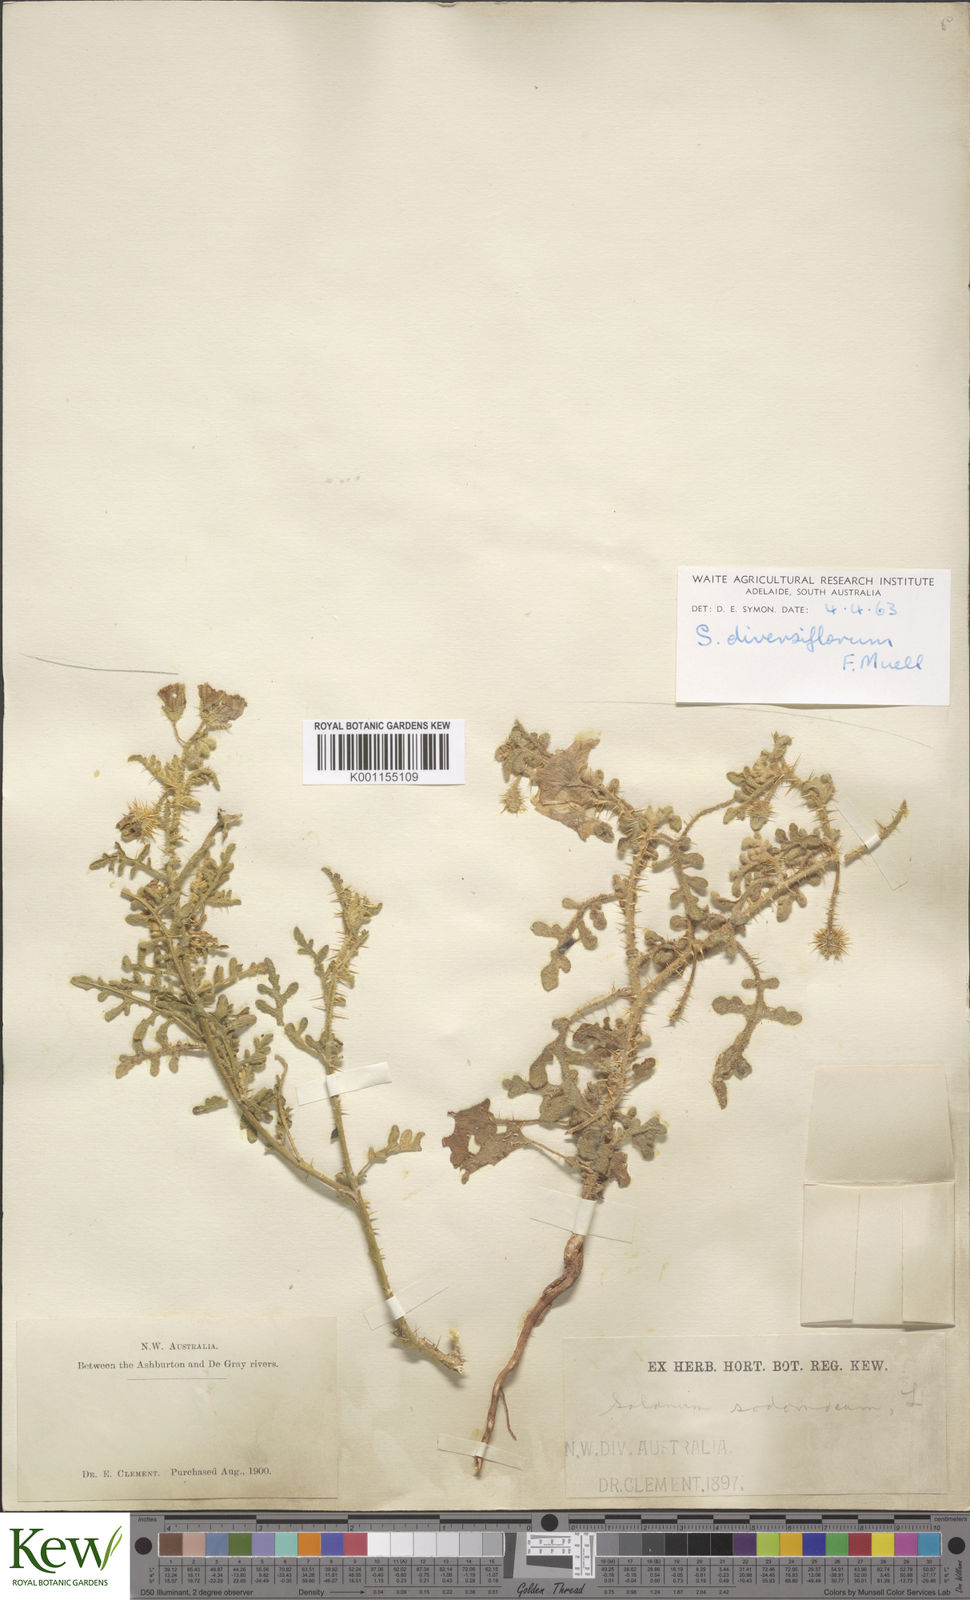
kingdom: Plantae
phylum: Tracheophyta
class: Magnoliopsida
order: Solanales
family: Solanaceae
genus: Solanum
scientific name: Solanum diversiflorum
